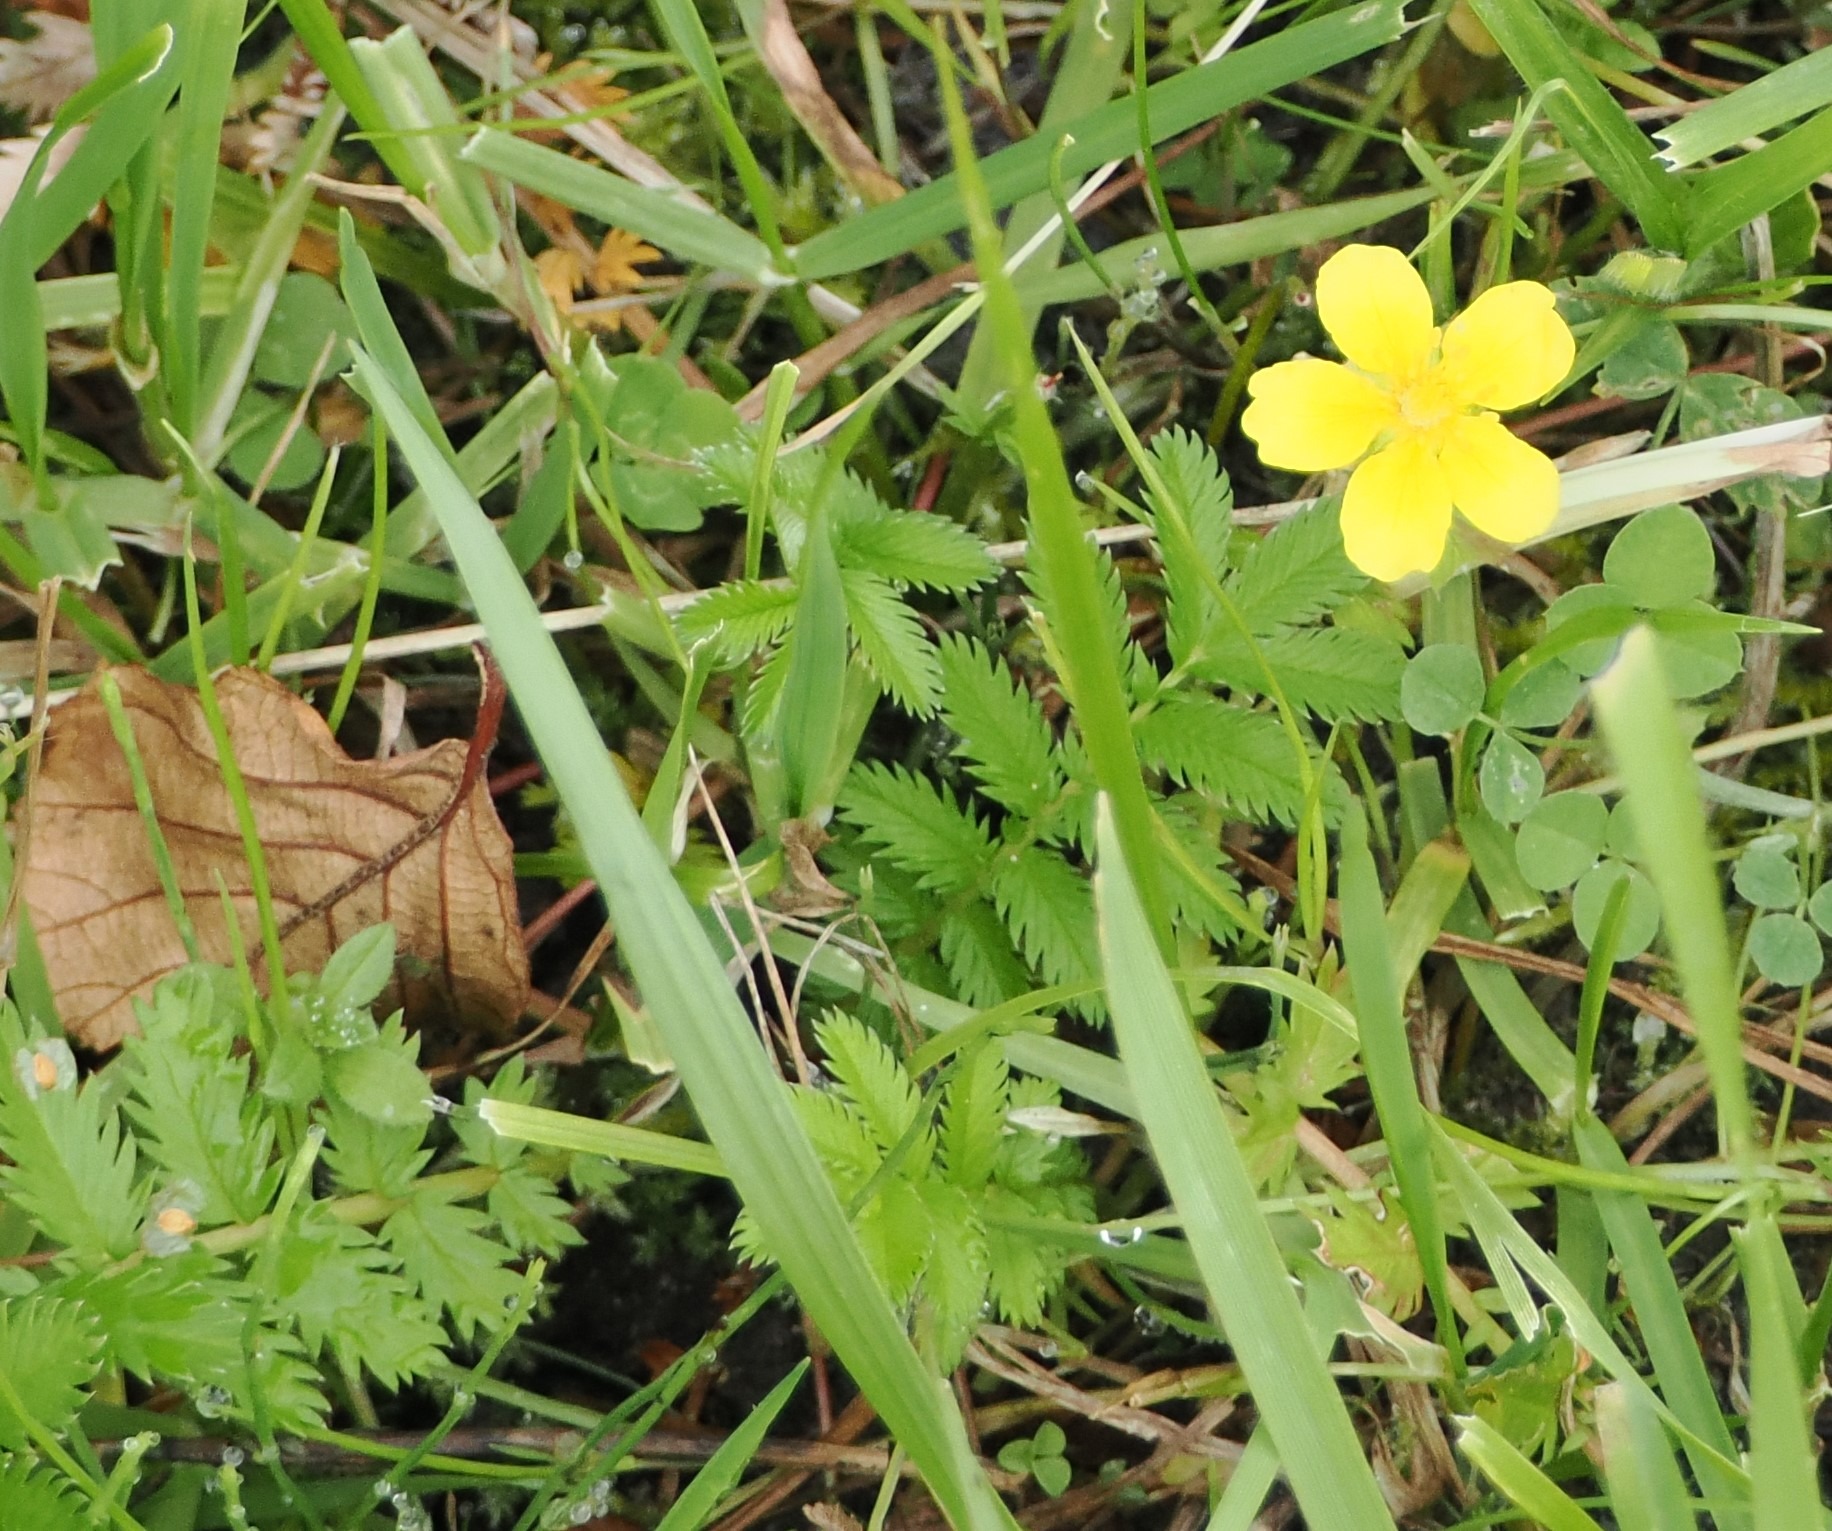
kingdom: Plantae
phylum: Tracheophyta
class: Magnoliopsida
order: Rosales
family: Rosaceae
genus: Argentina
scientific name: Argentina anserina
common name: Gåsepotentil
